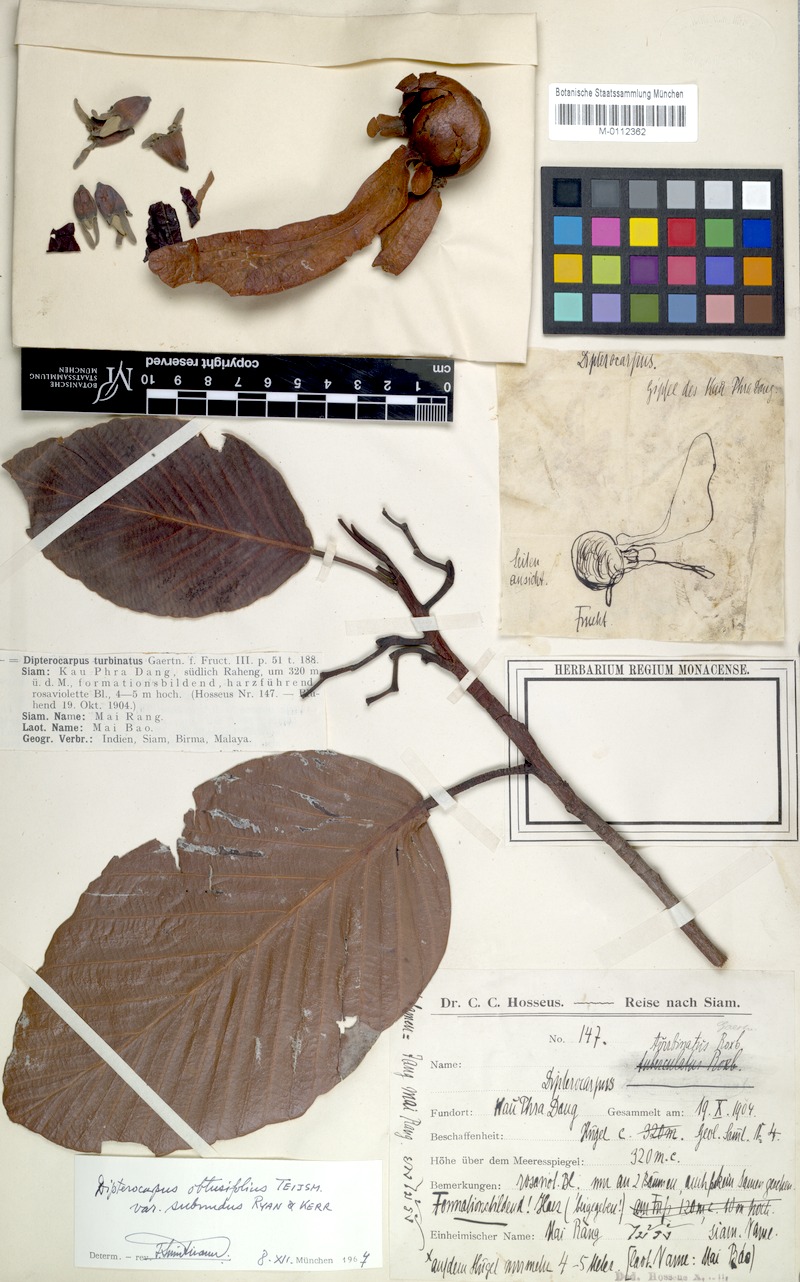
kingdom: Plantae
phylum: Tracheophyta
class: Magnoliopsida
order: Malvales
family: Dipterocarpaceae
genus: Dipterocarpus
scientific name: Dipterocarpus obtusifolius
